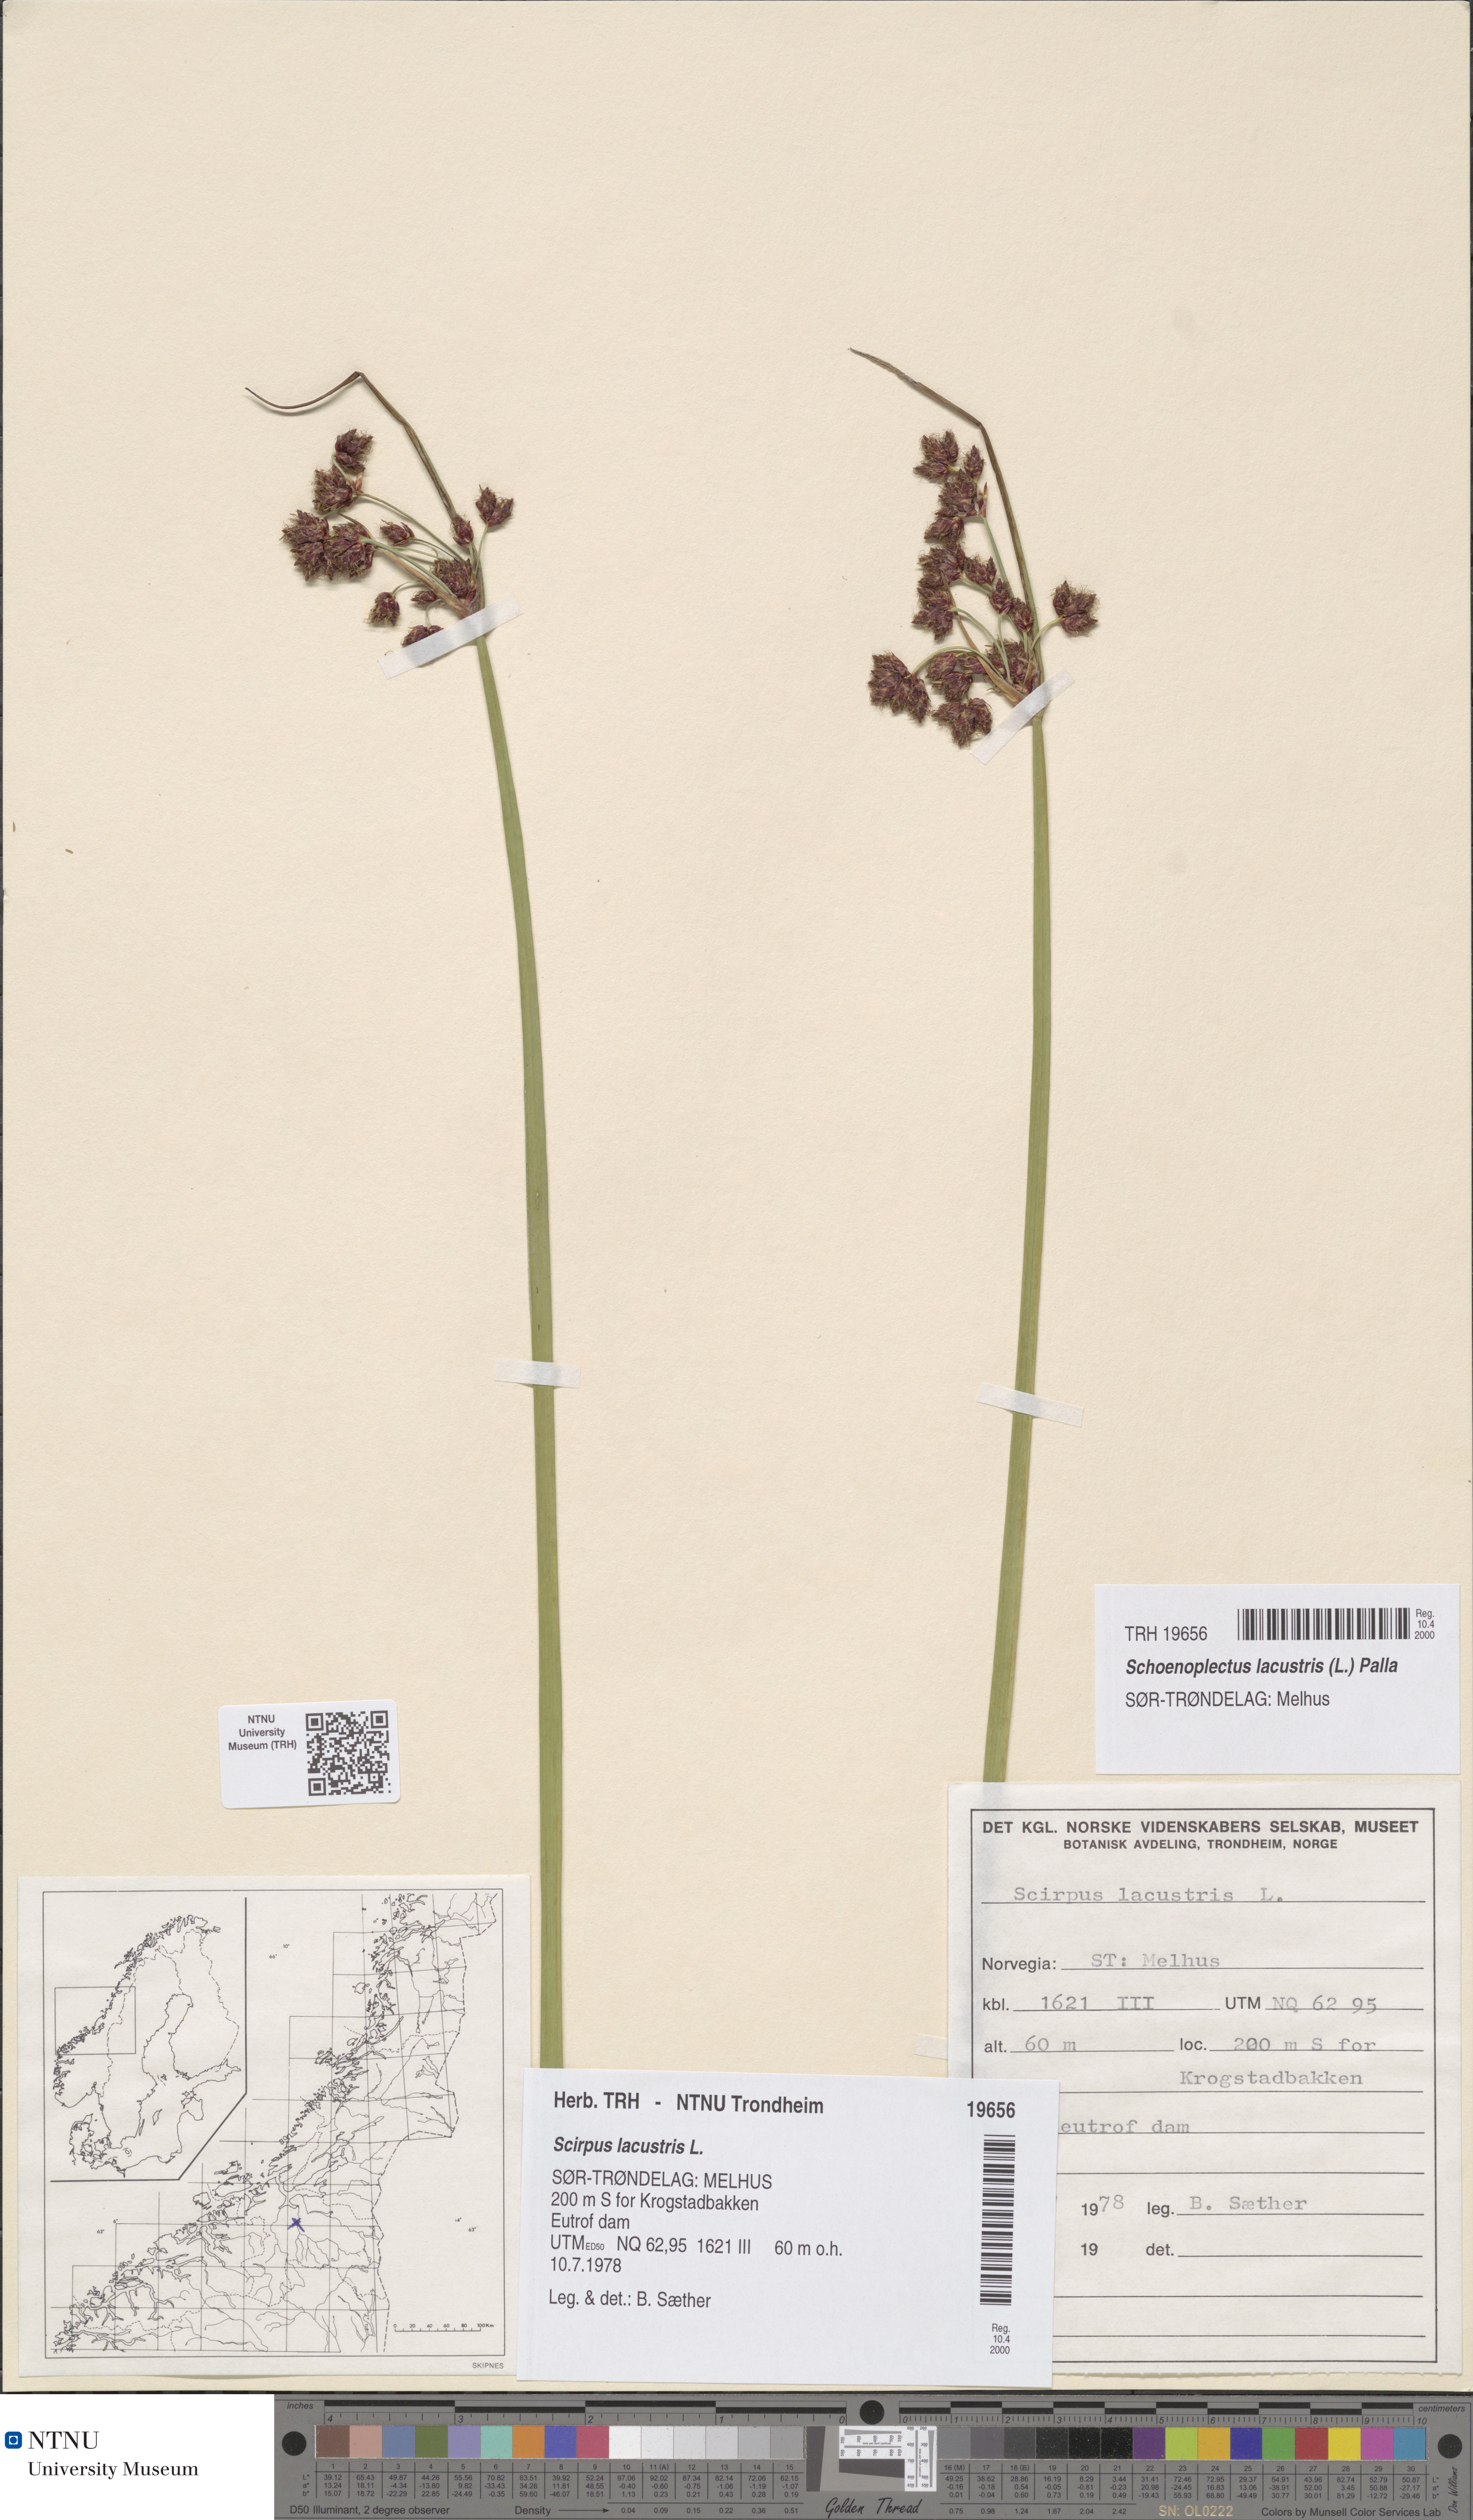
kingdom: Plantae
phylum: Tracheophyta
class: Liliopsida
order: Poales
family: Cyperaceae
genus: Schoenoplectus
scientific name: Schoenoplectus lacustris
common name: Common club-rush
